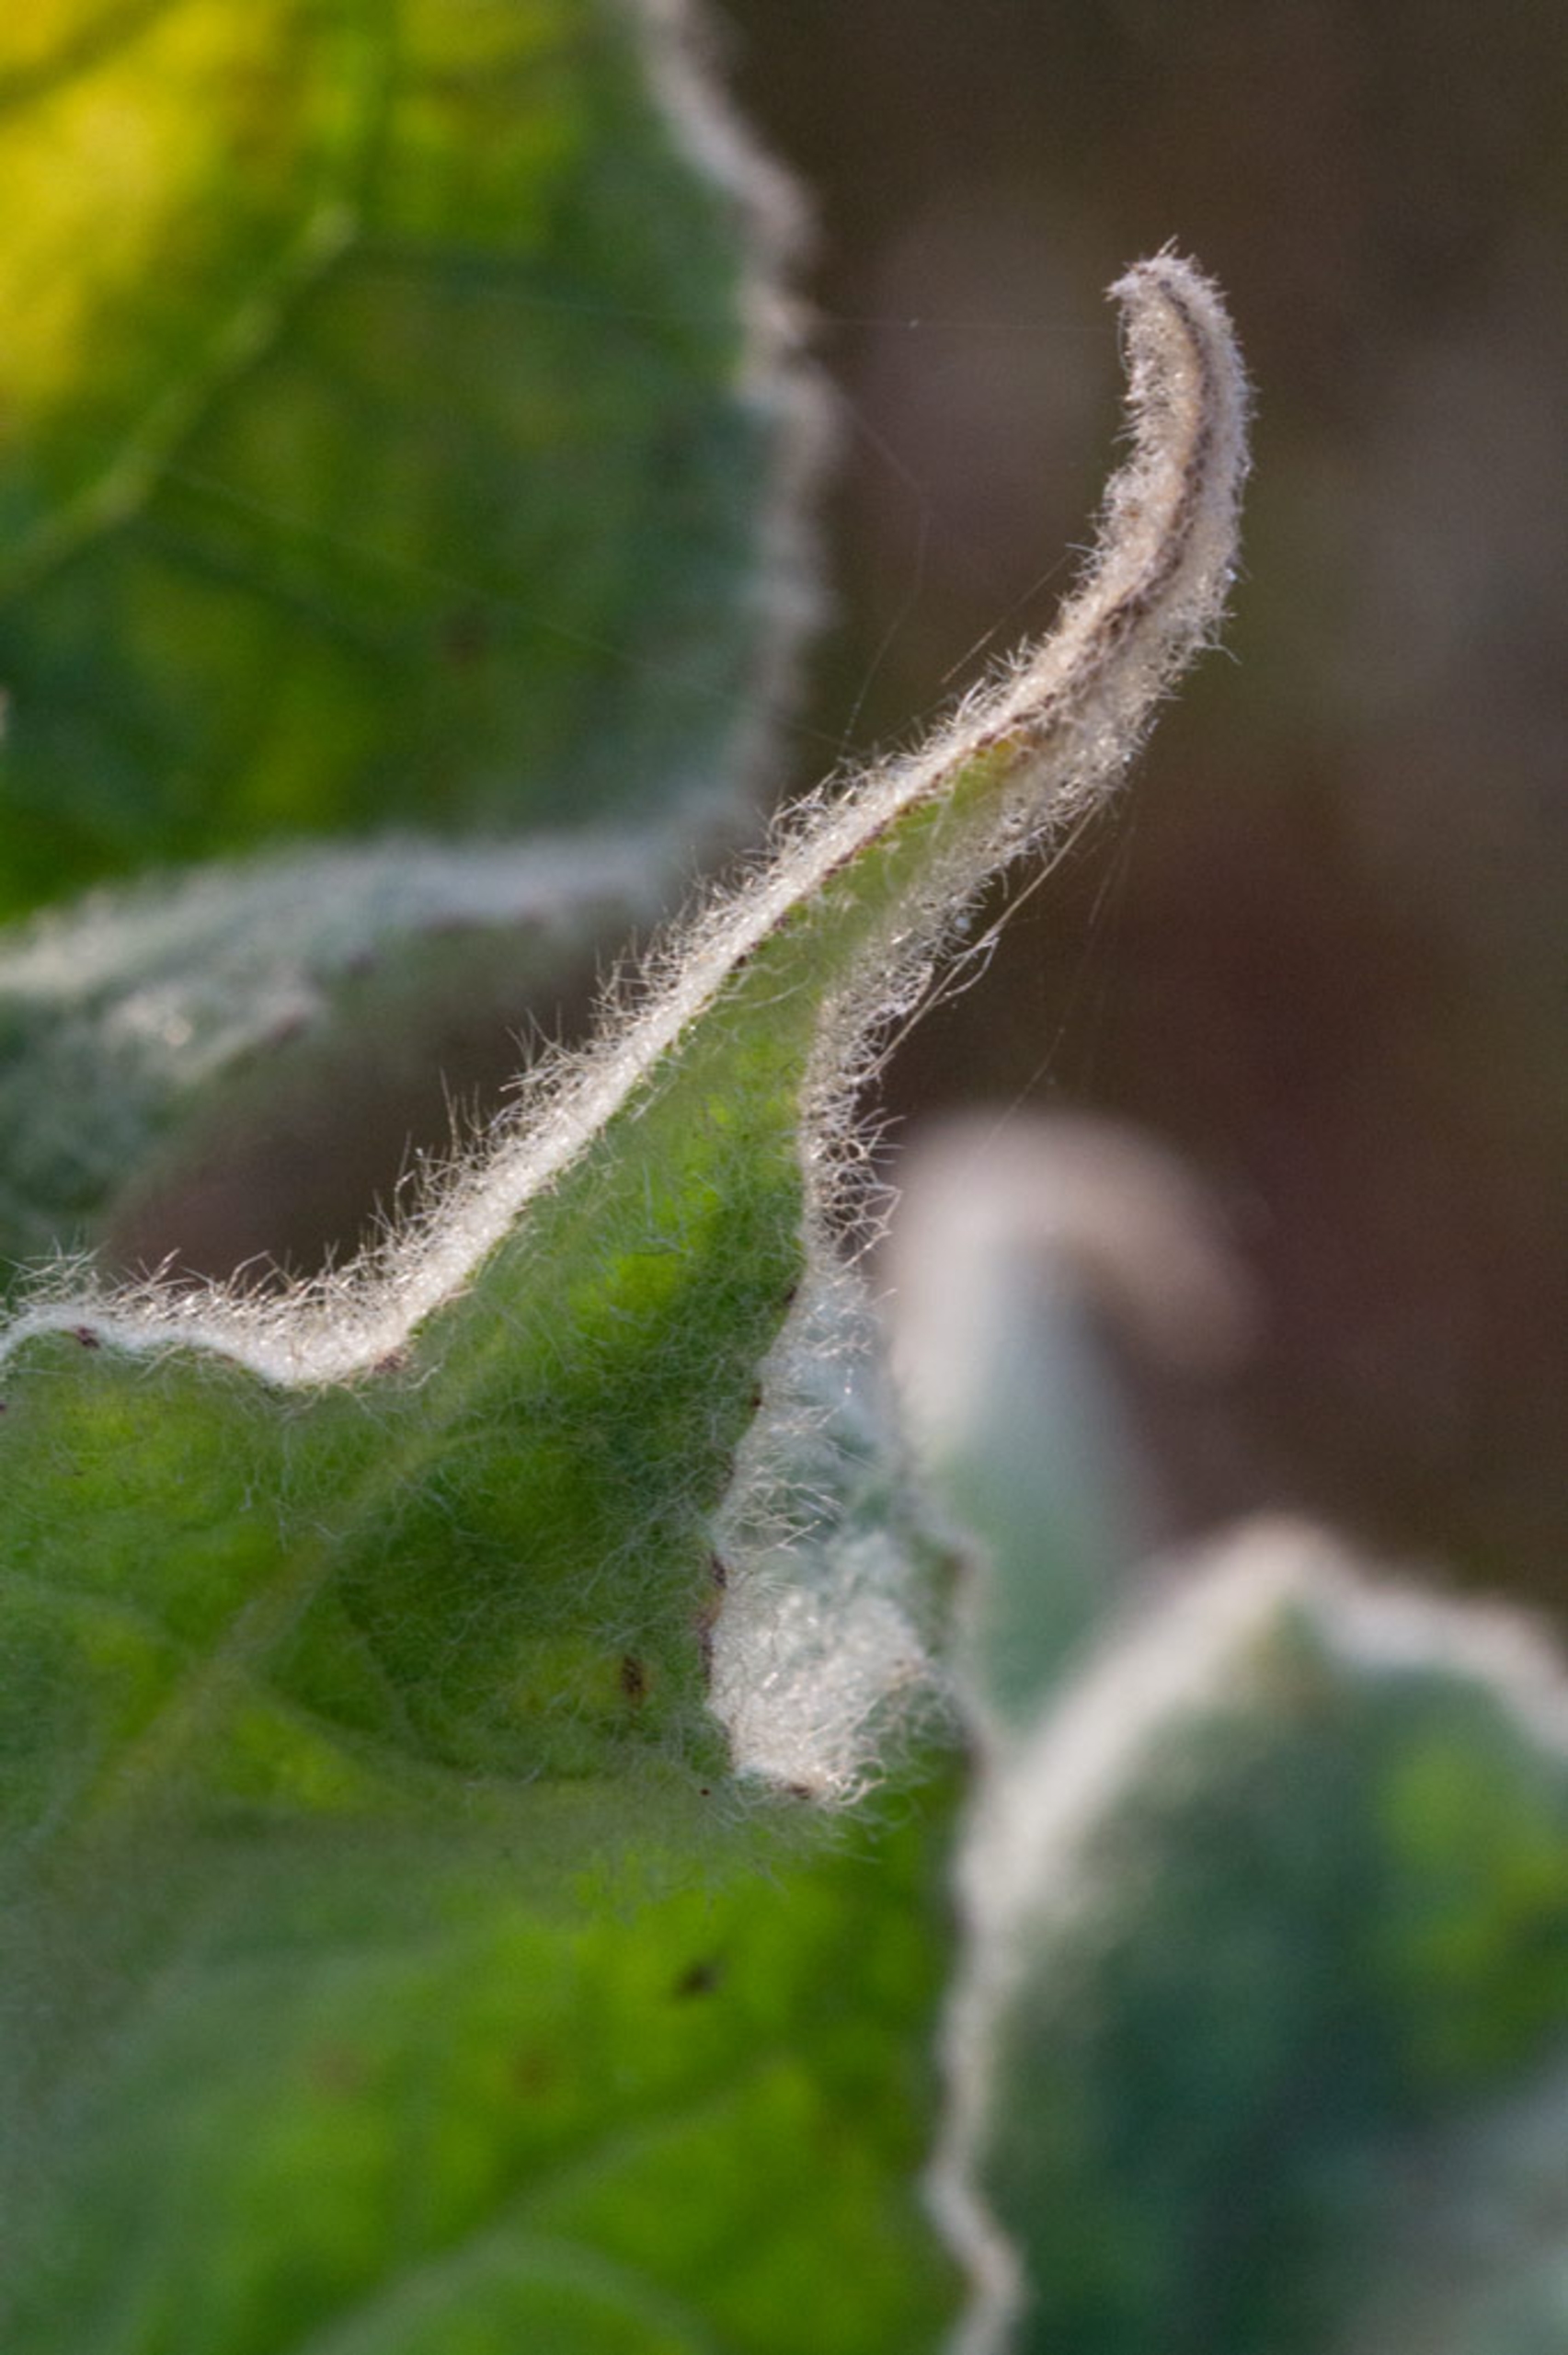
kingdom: Plantae
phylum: Tracheophyta
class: Magnoliopsida
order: Lamiales
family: Scrophulariaceae
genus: Verbascum
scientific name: Verbascum densiflorum
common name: Uldbladet kongelys
